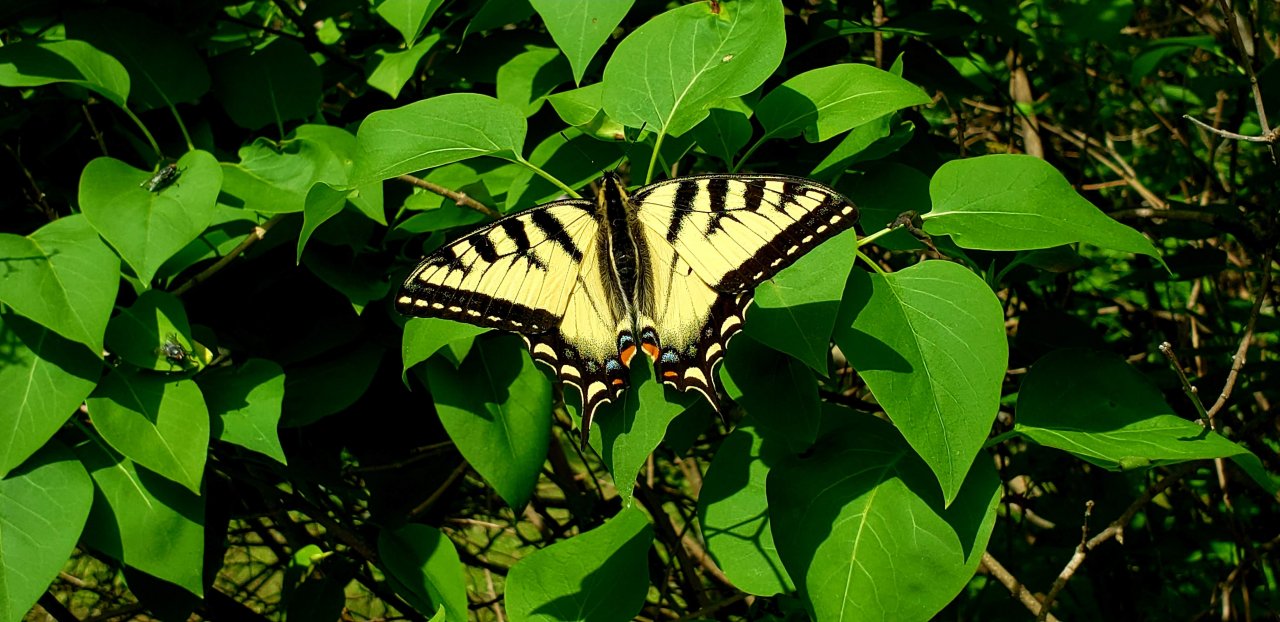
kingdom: Animalia
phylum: Arthropoda
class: Insecta
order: Lepidoptera
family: Papilionidae
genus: Pterourus
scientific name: Pterourus canadensis
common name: Canadian Tiger Swallowtail
